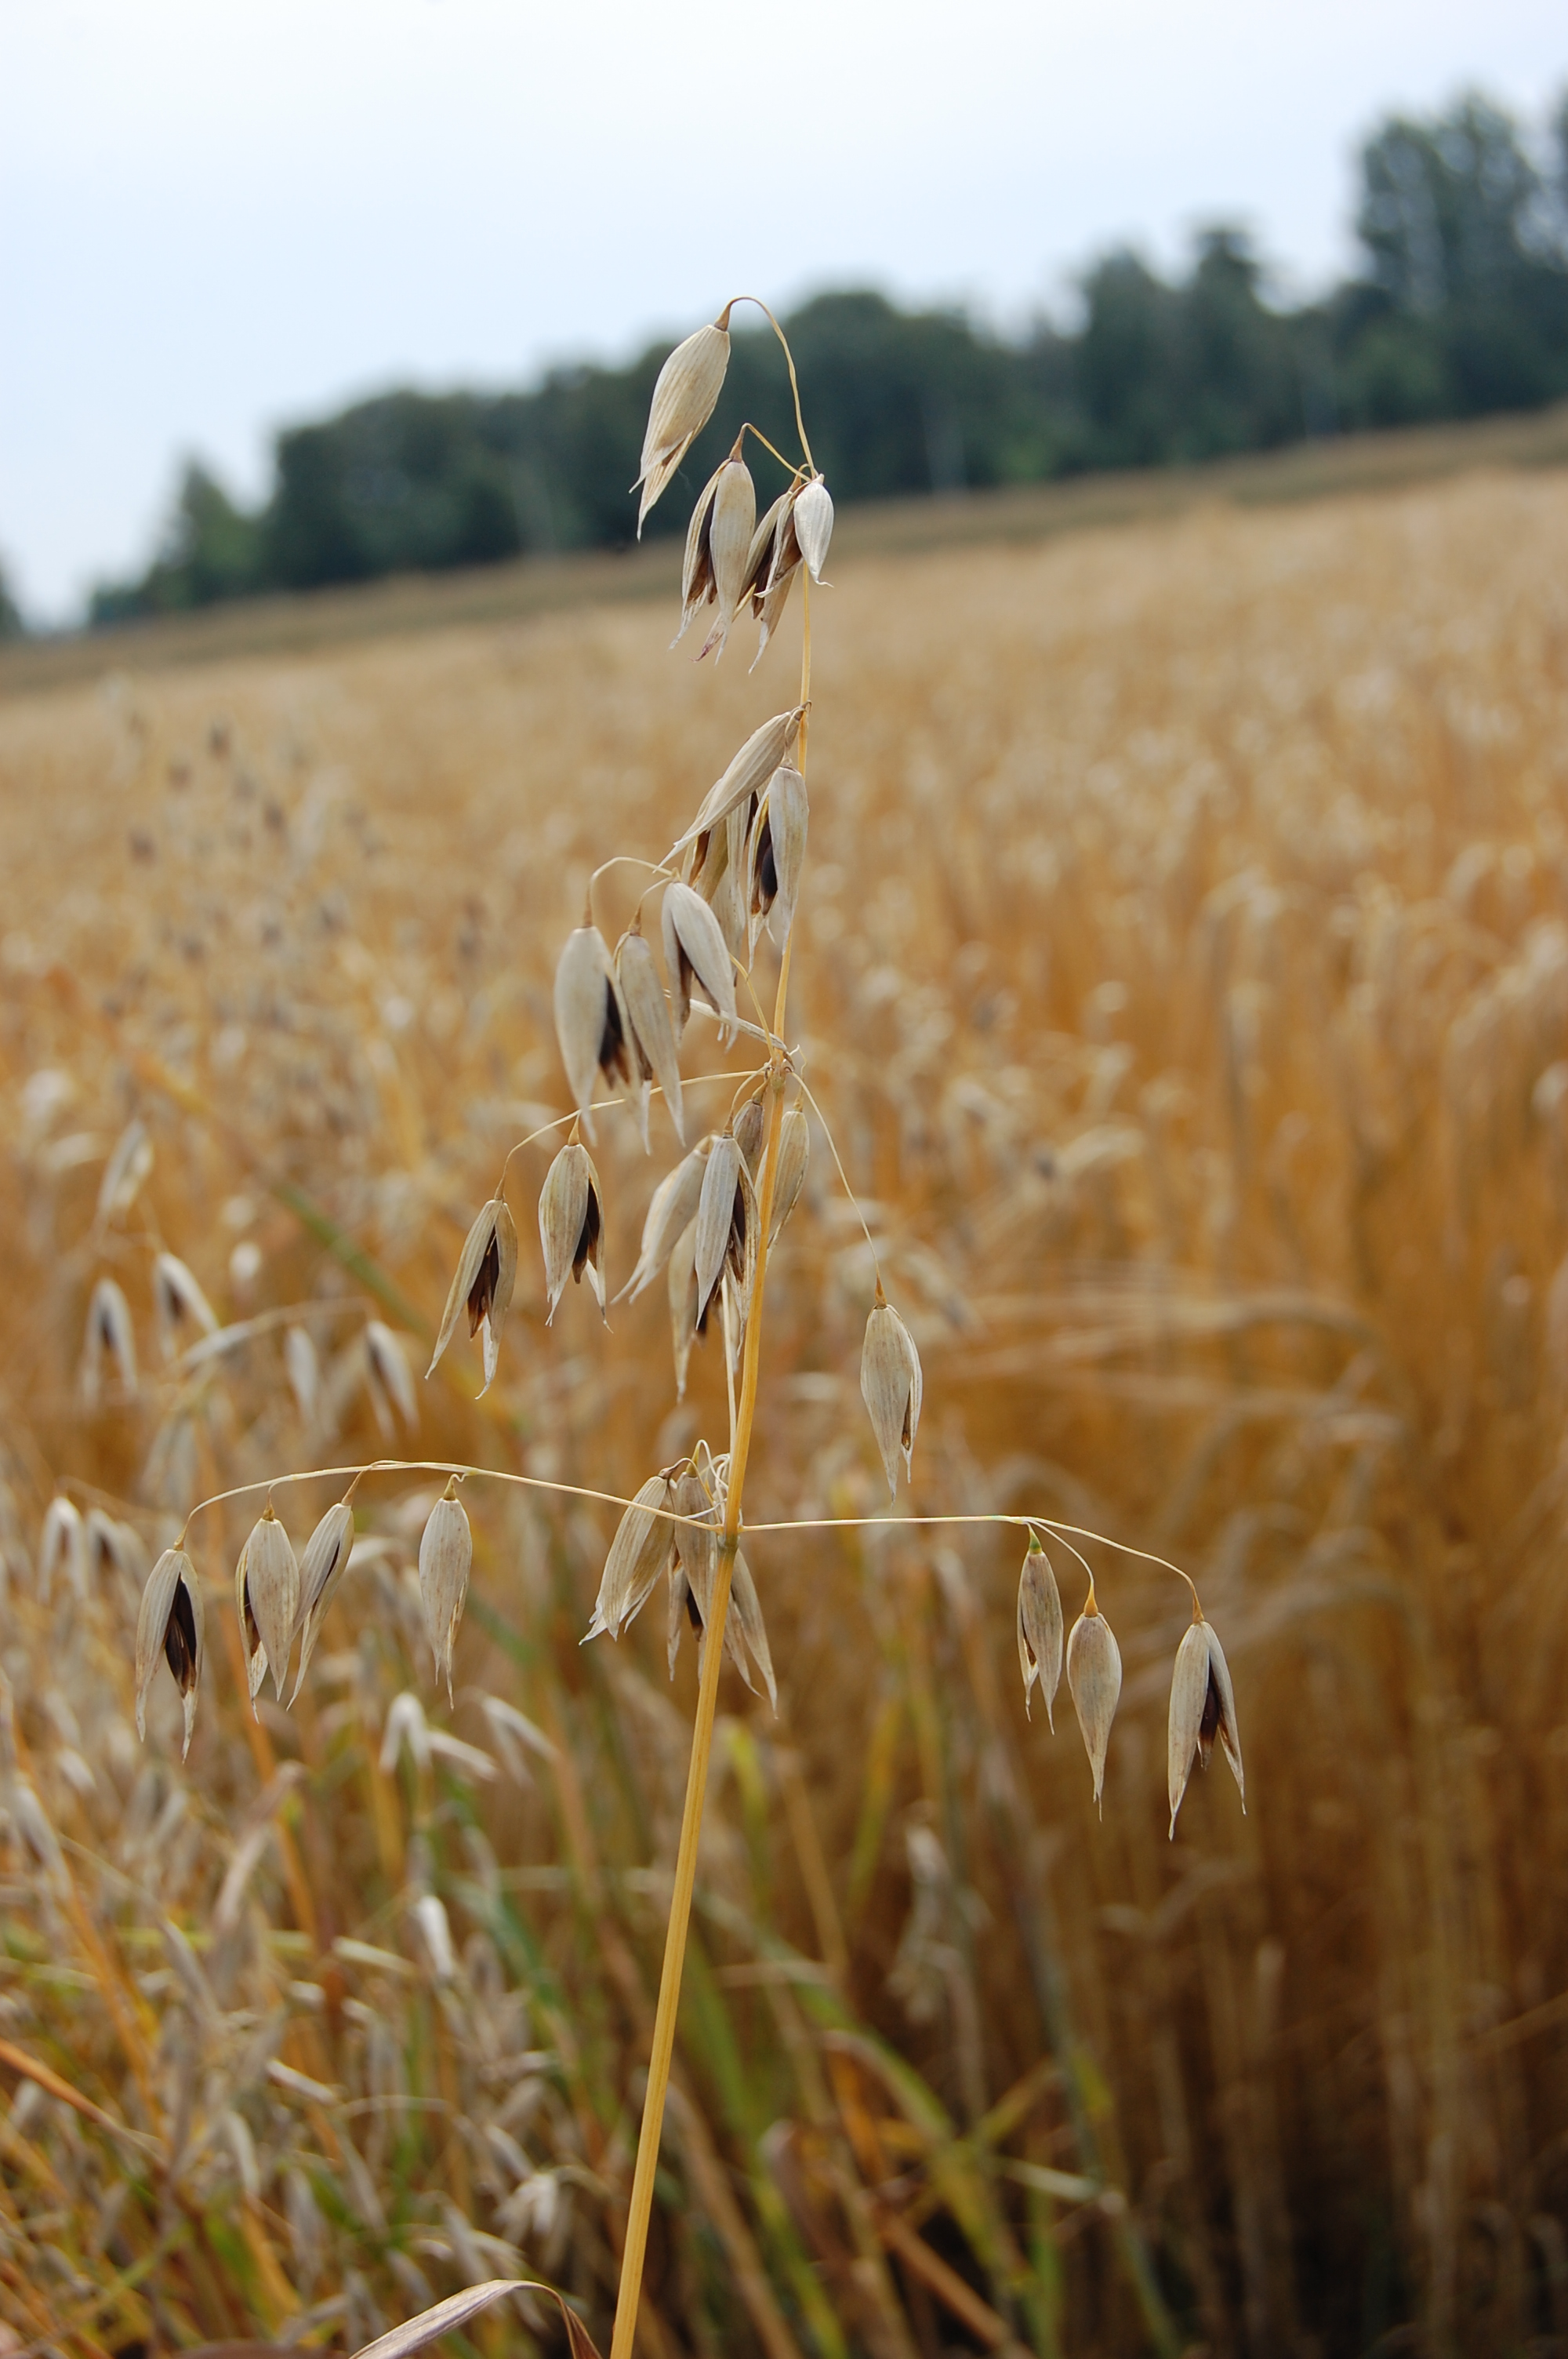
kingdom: Plantae
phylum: Tracheophyta
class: Liliopsida
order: Poales
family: Poaceae
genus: Avena
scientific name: Avena sativa
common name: Oat
